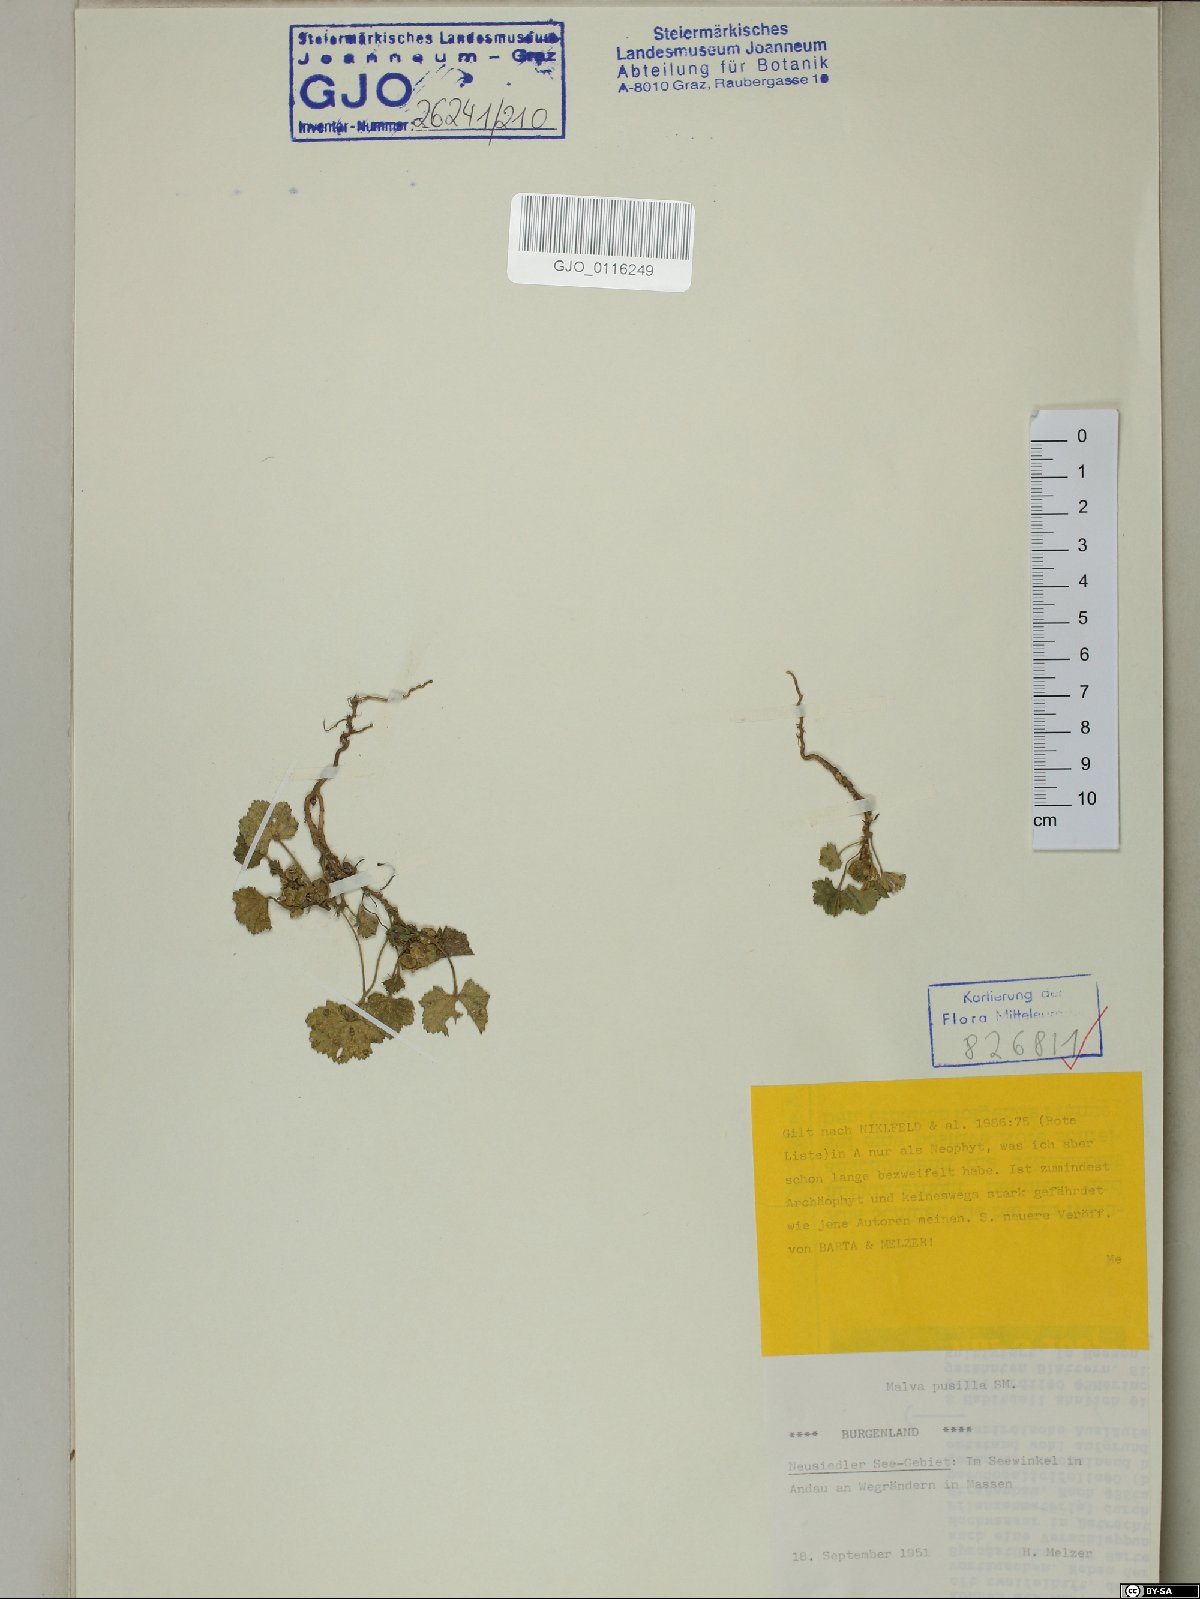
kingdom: Plantae
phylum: Tracheophyta
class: Magnoliopsida
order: Malvales
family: Malvaceae
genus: Malva
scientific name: Malva pusilla
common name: Small mallow
